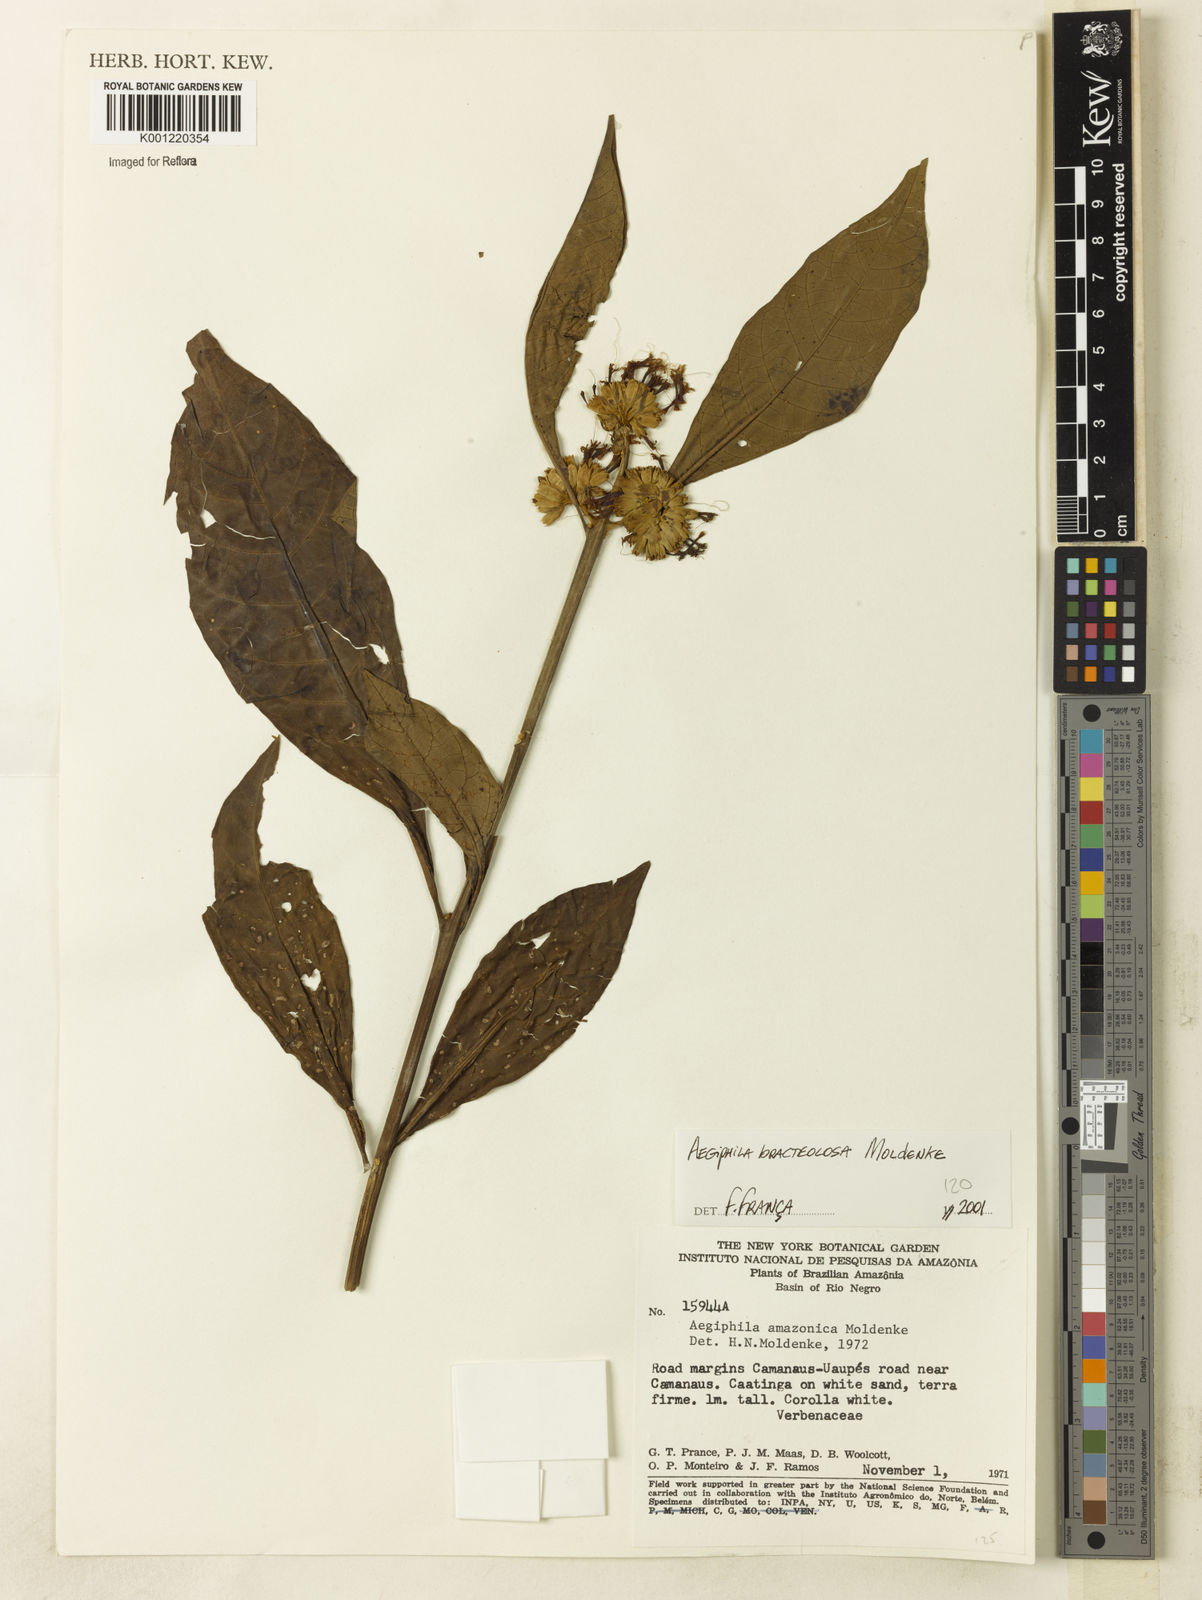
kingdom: Plantae
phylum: Tracheophyta
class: Magnoliopsida
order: Lamiales
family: Lamiaceae
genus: Aegiphila
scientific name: Aegiphila bracteolosa
